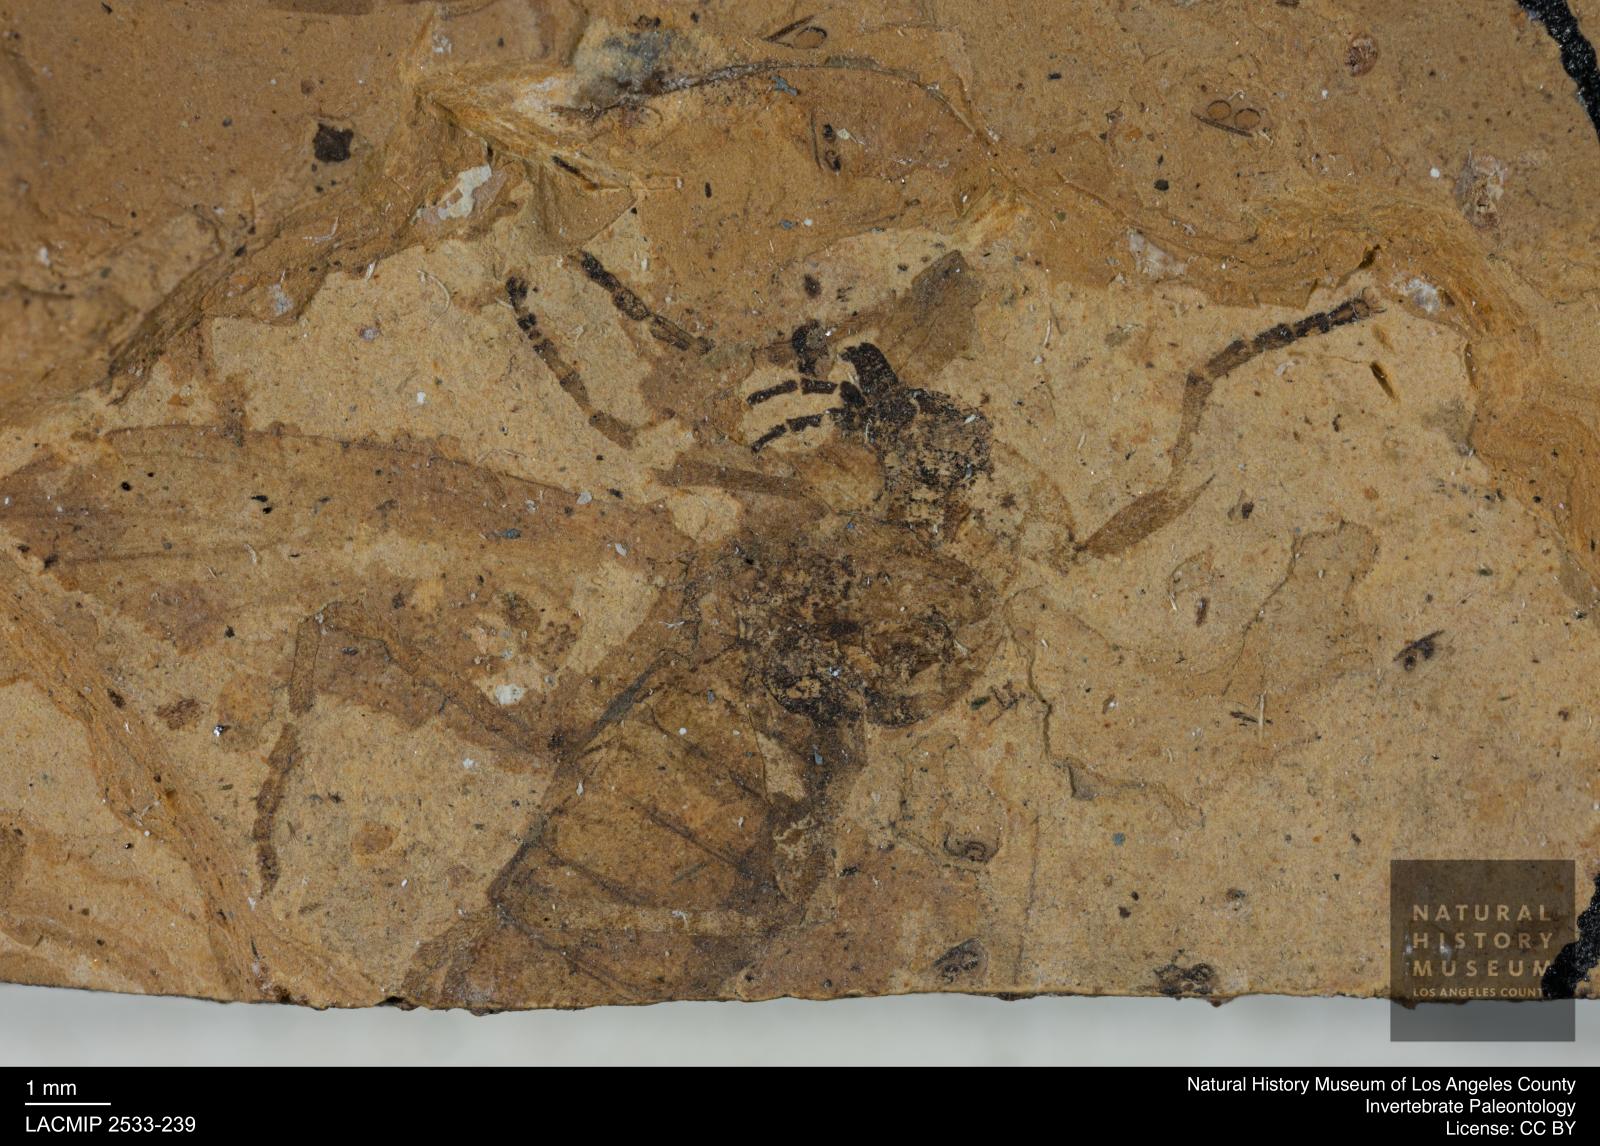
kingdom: Animalia
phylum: Arthropoda
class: Insecta
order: Diptera
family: Bibionidae
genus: Bibio
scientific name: Bibio rottensis
